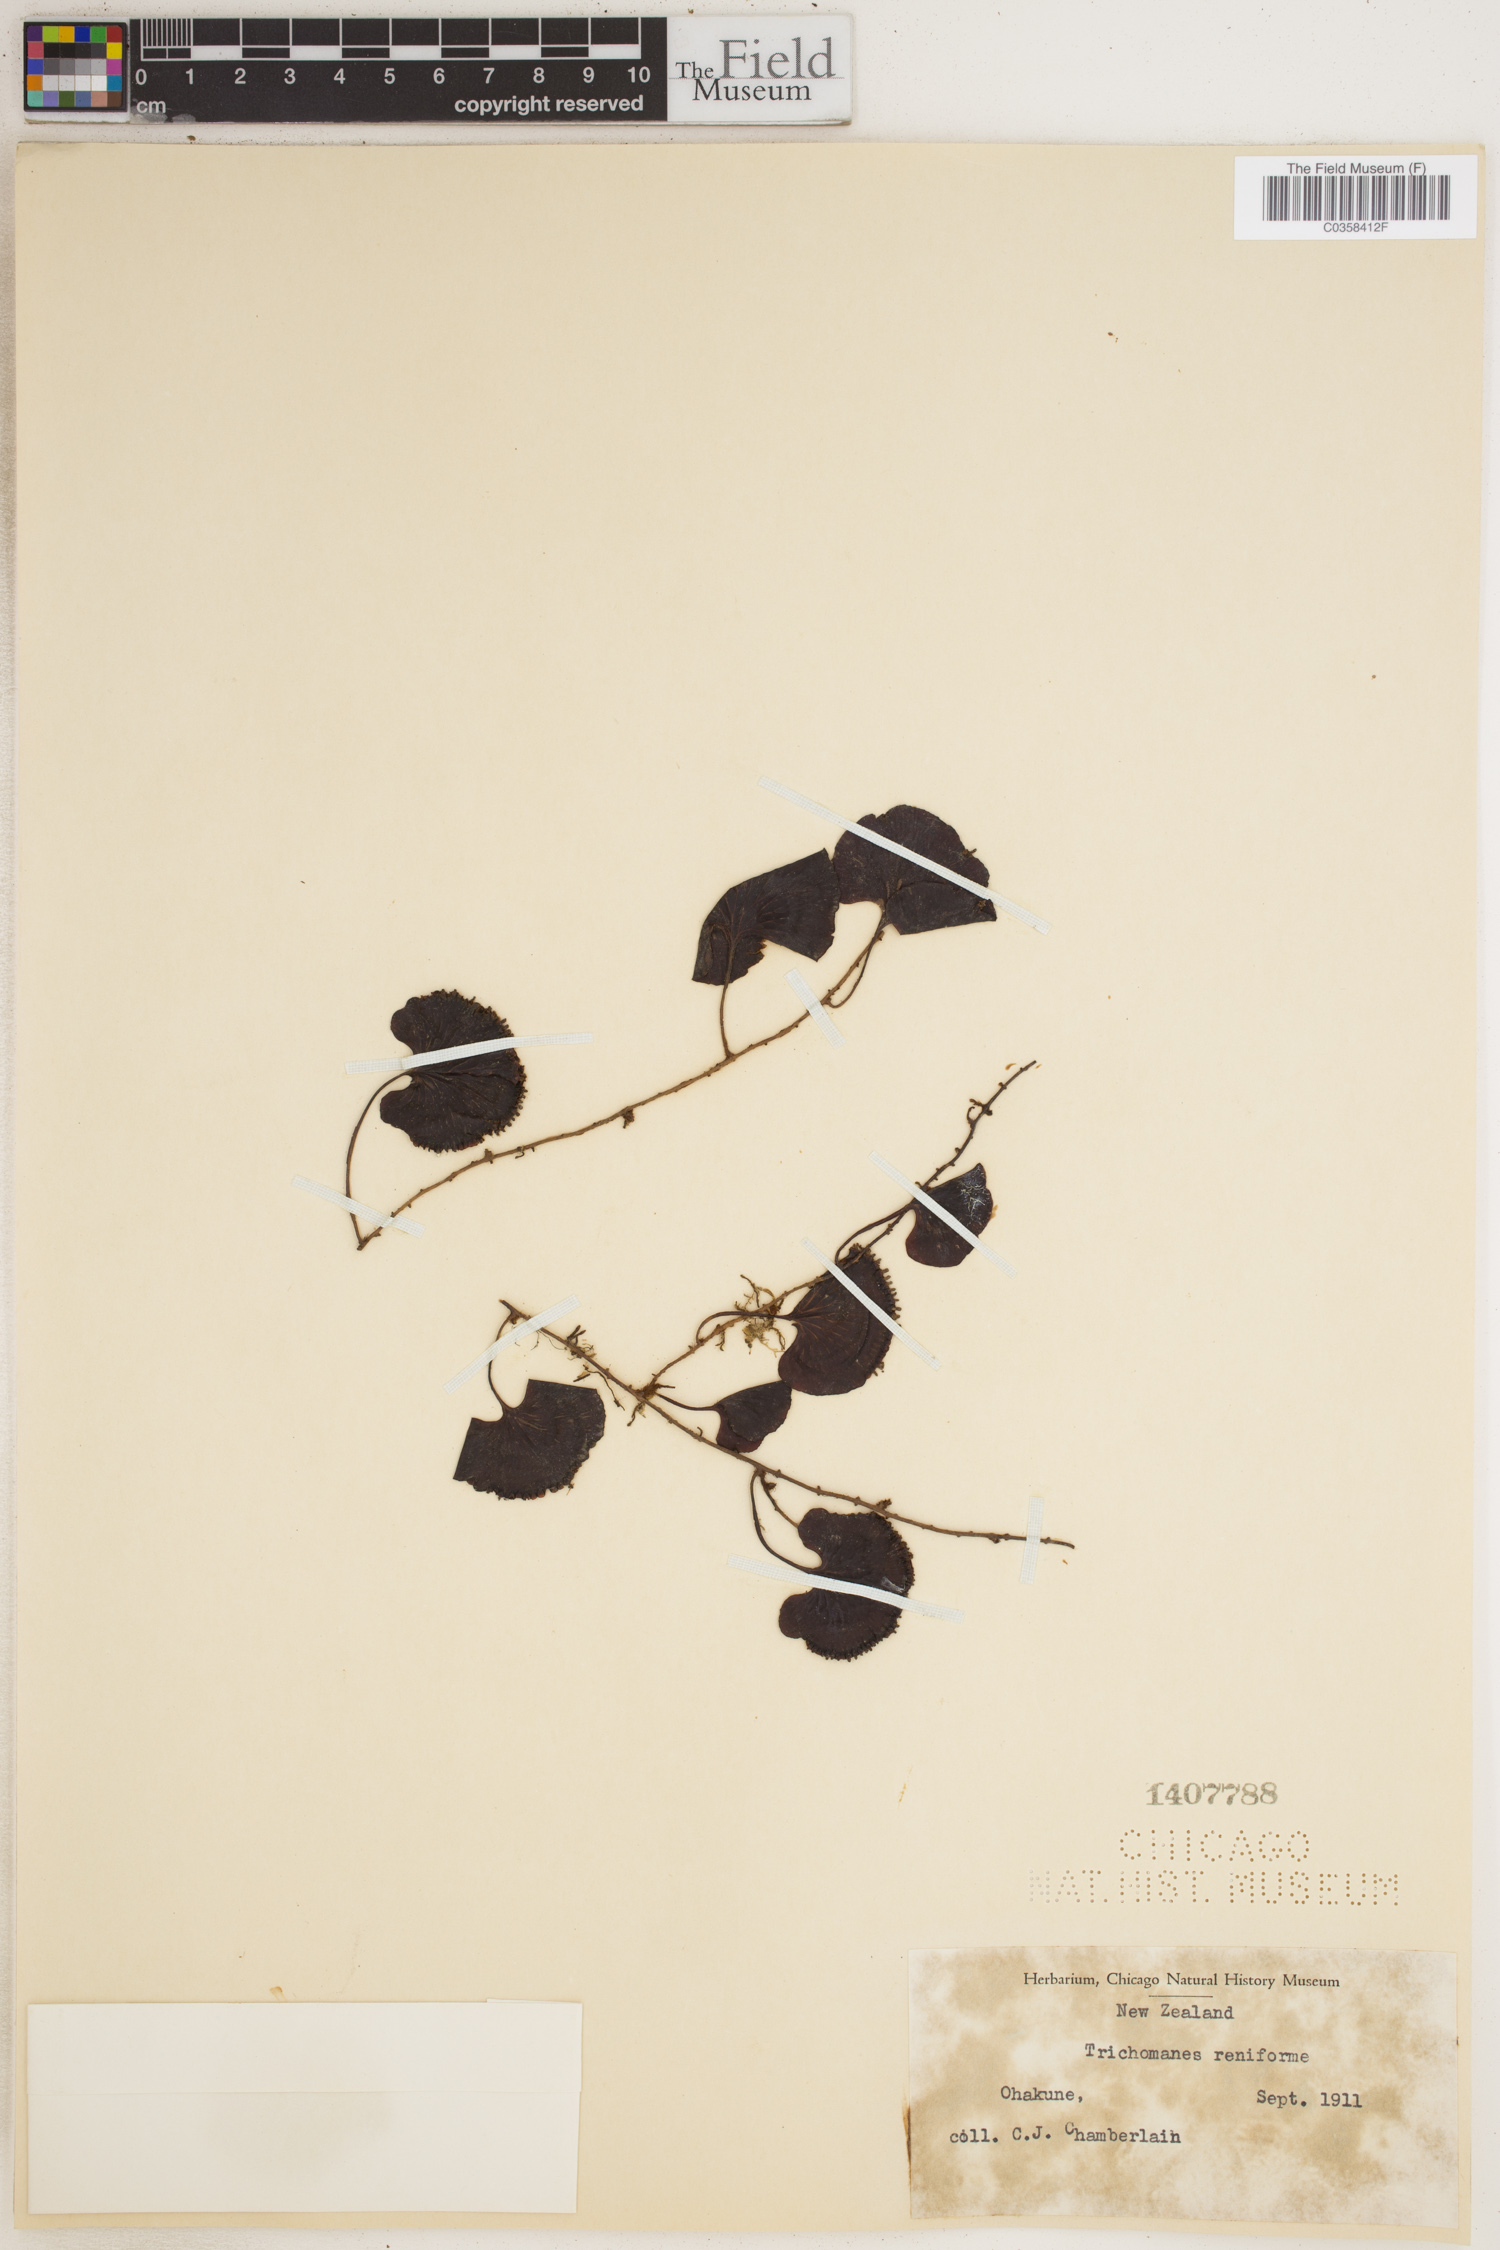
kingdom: Plantae
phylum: Tracheophyta
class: Polypodiopsida
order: Hymenophyllales
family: Hymenophyllaceae
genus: Hymenophyllum
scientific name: Hymenophyllum nephrophyllum
